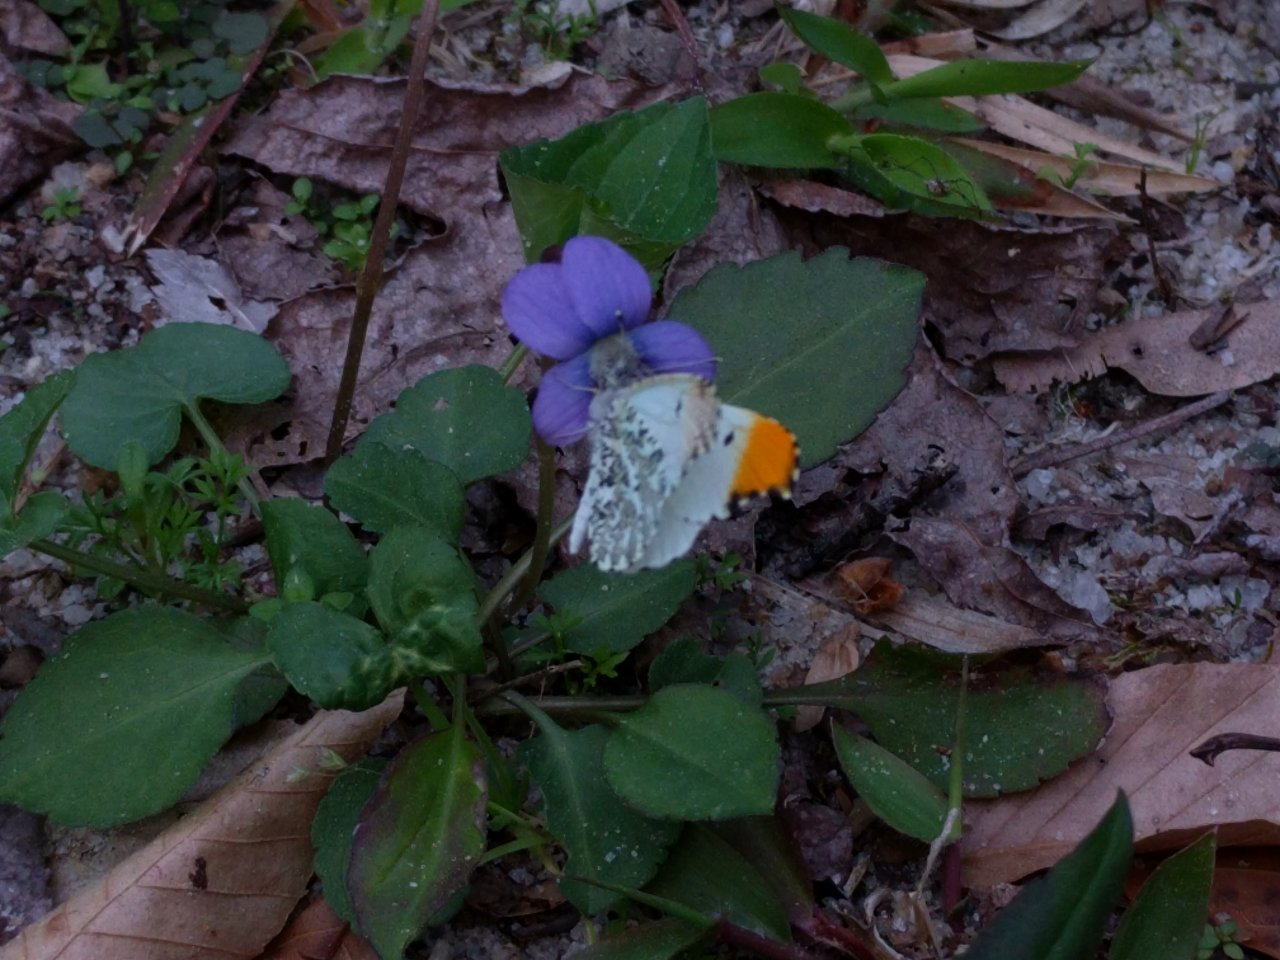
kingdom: Animalia
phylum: Arthropoda
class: Insecta
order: Lepidoptera
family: Pieridae
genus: Anthocharis
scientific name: Anthocharis midea
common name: Falcate Orangetip
